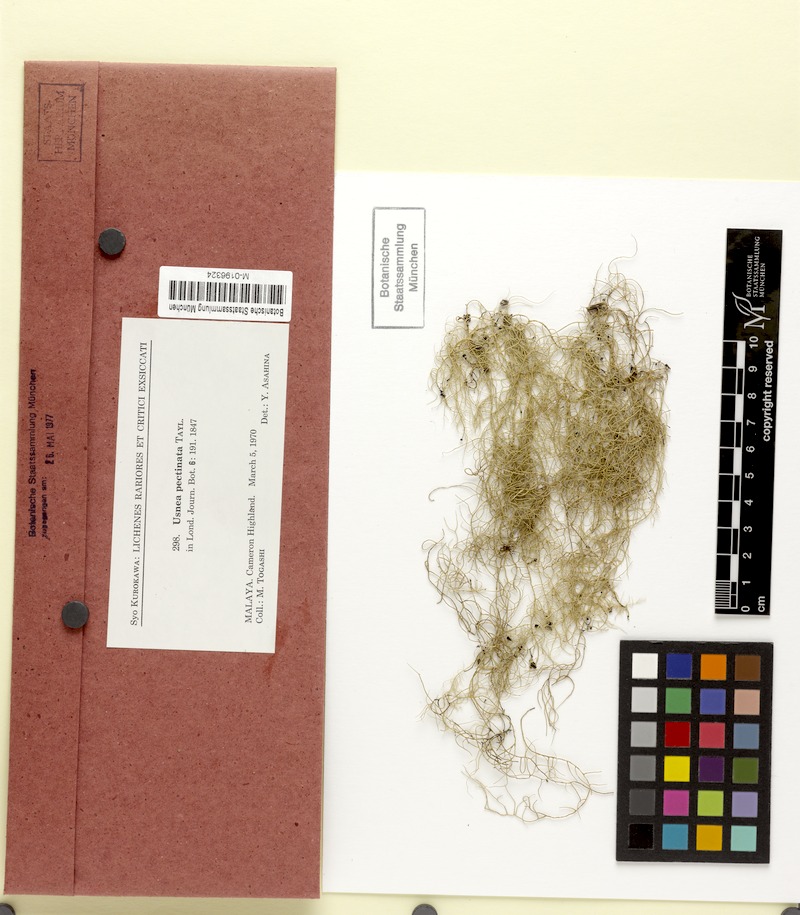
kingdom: Fungi
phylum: Ascomycota
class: Lecanoromycetes
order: Lecanorales
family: Parmeliaceae
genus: Eumitria
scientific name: Eumitria pectinata
